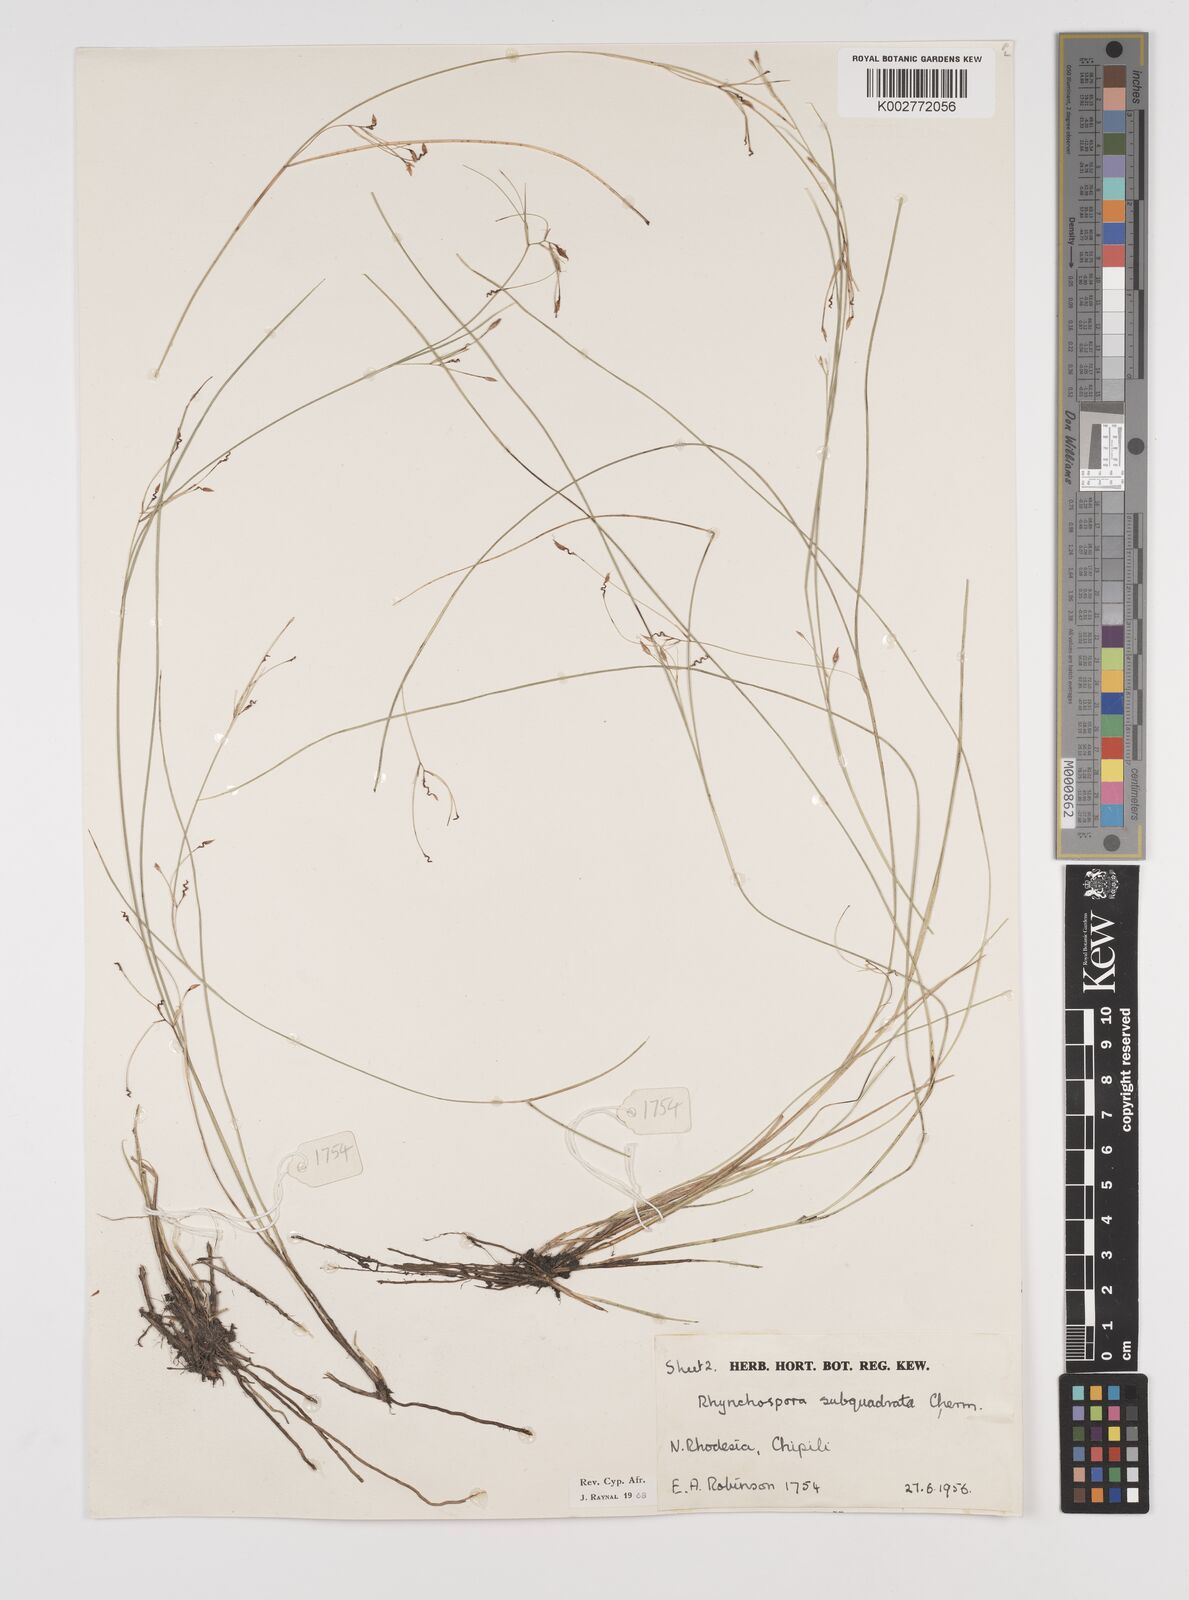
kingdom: Plantae
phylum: Tracheophyta
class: Liliopsida
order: Poales
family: Cyperaceae
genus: Rhynchospora
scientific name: Rhynchospora gracillima
